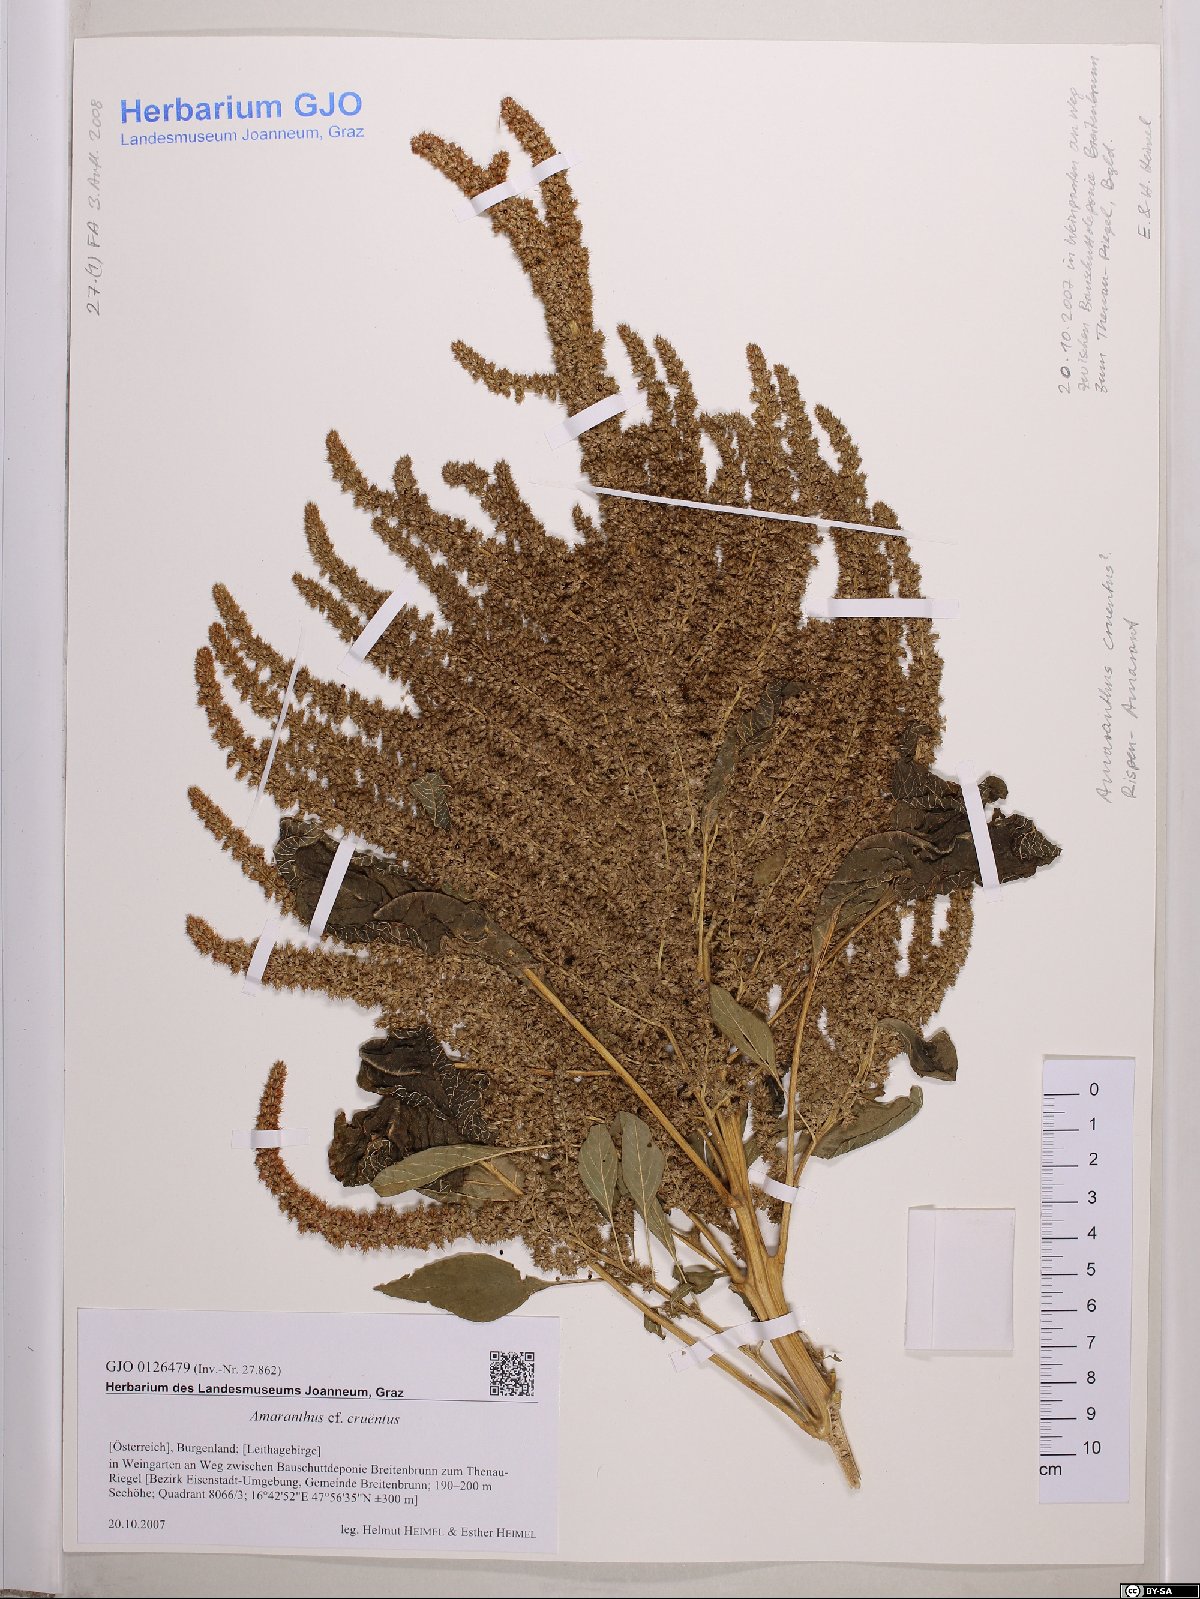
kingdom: Plantae
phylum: Tracheophyta
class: Magnoliopsida
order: Caryophyllales
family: Amaranthaceae
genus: Amaranthus
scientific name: Amaranthus cruentus
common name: Purple amaranth
